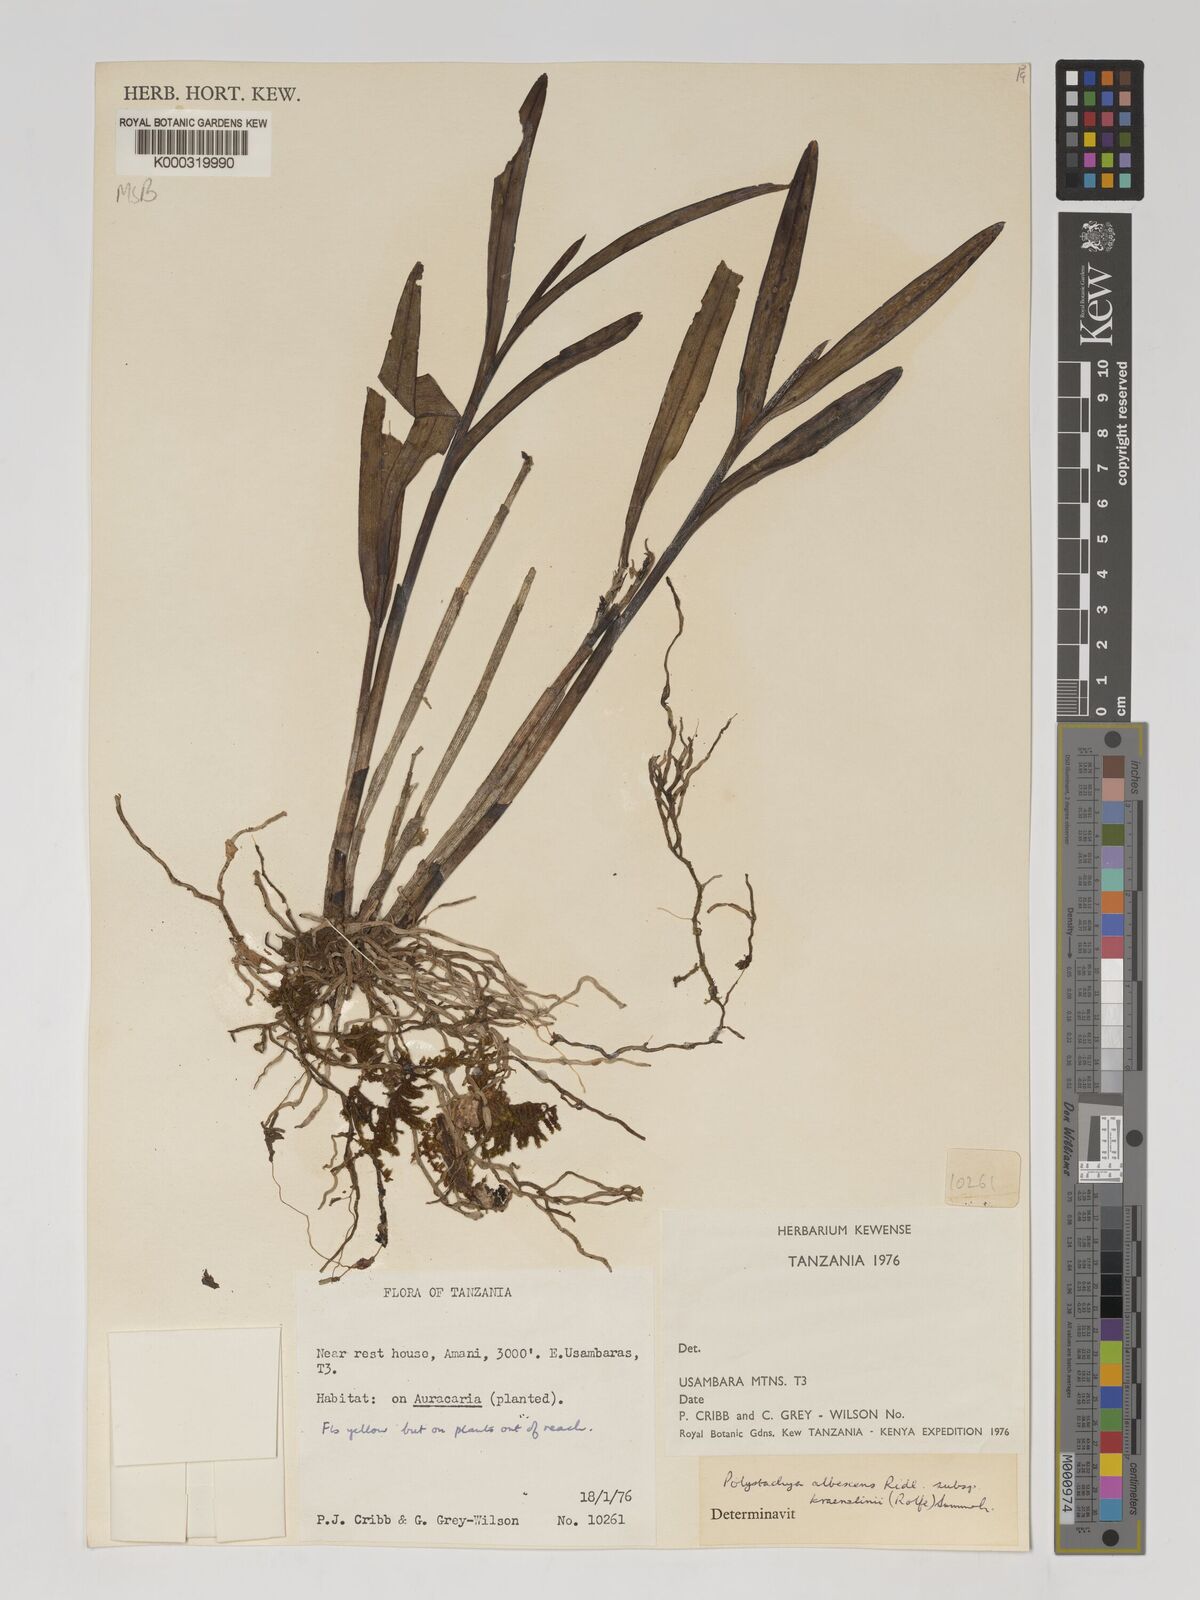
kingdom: Plantae
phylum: Tracheophyta
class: Liliopsida
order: Asparagales
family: Orchidaceae
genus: Polystachya
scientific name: Polystachya albescens
